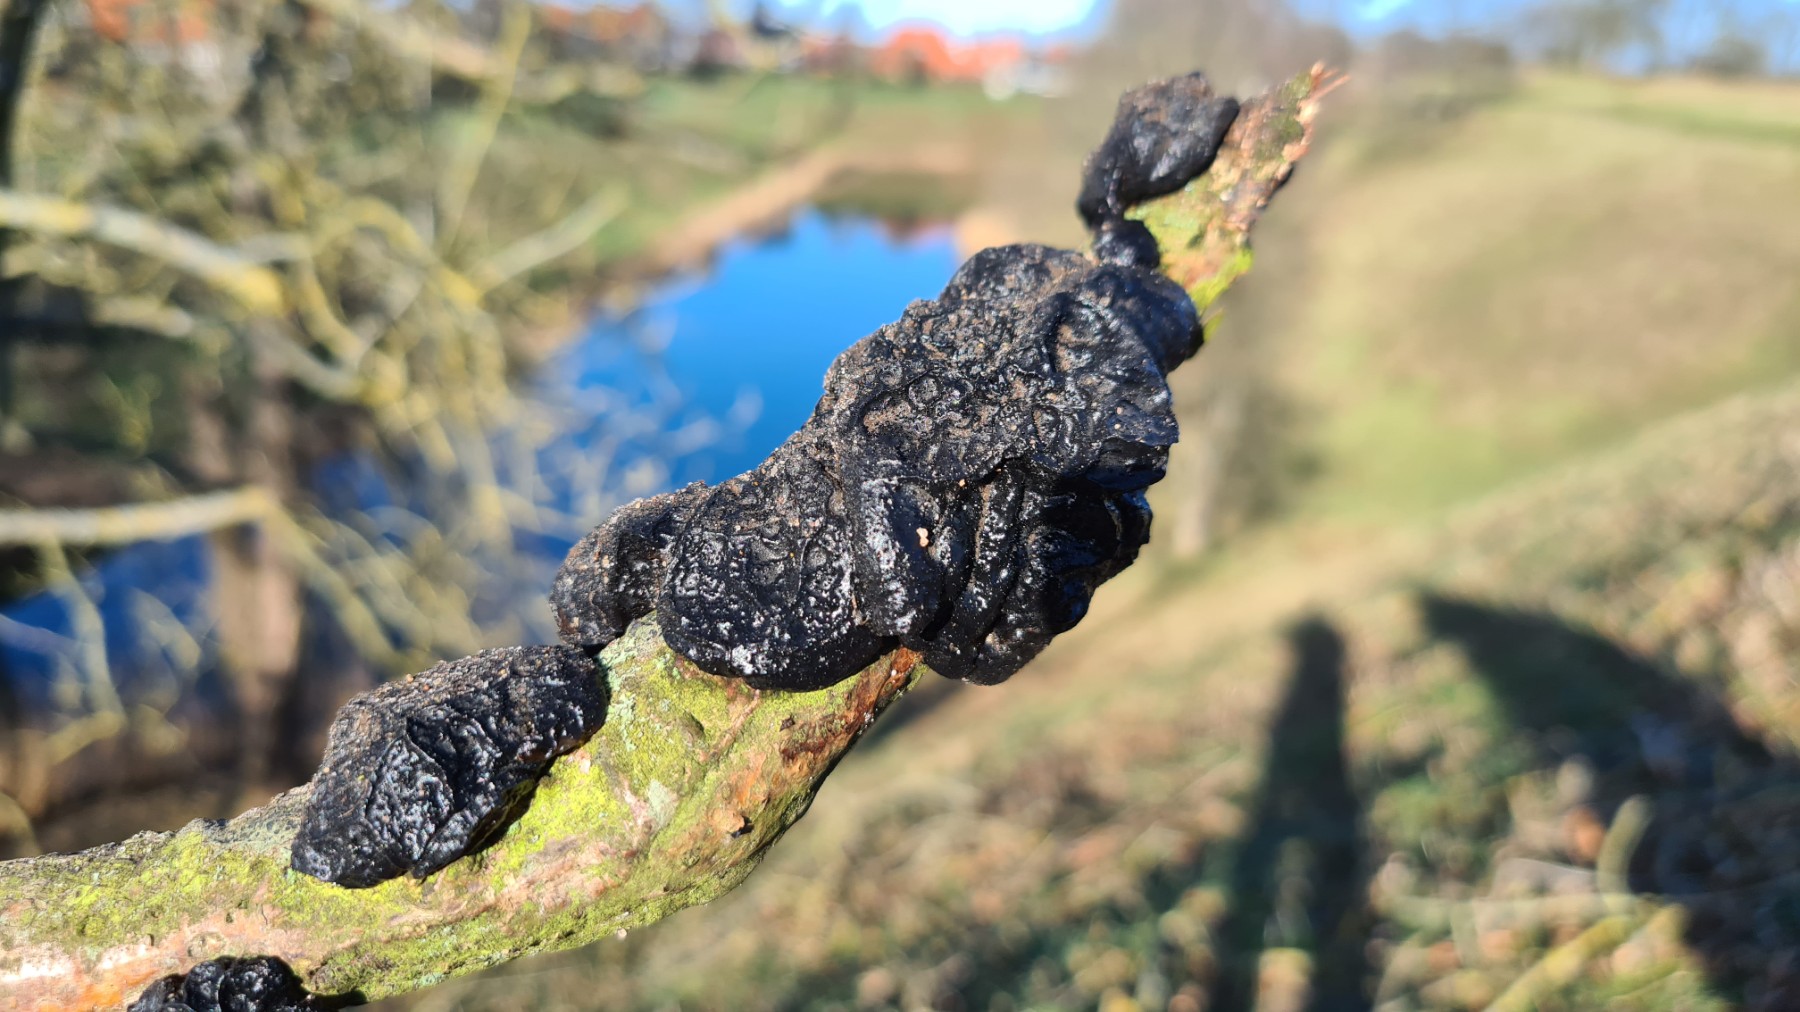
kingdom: Fungi
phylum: Basidiomycota
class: Agaricomycetes
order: Auriculariales
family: Auriculariaceae
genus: Exidia
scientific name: Exidia glandulosa
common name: ege-bævretop
